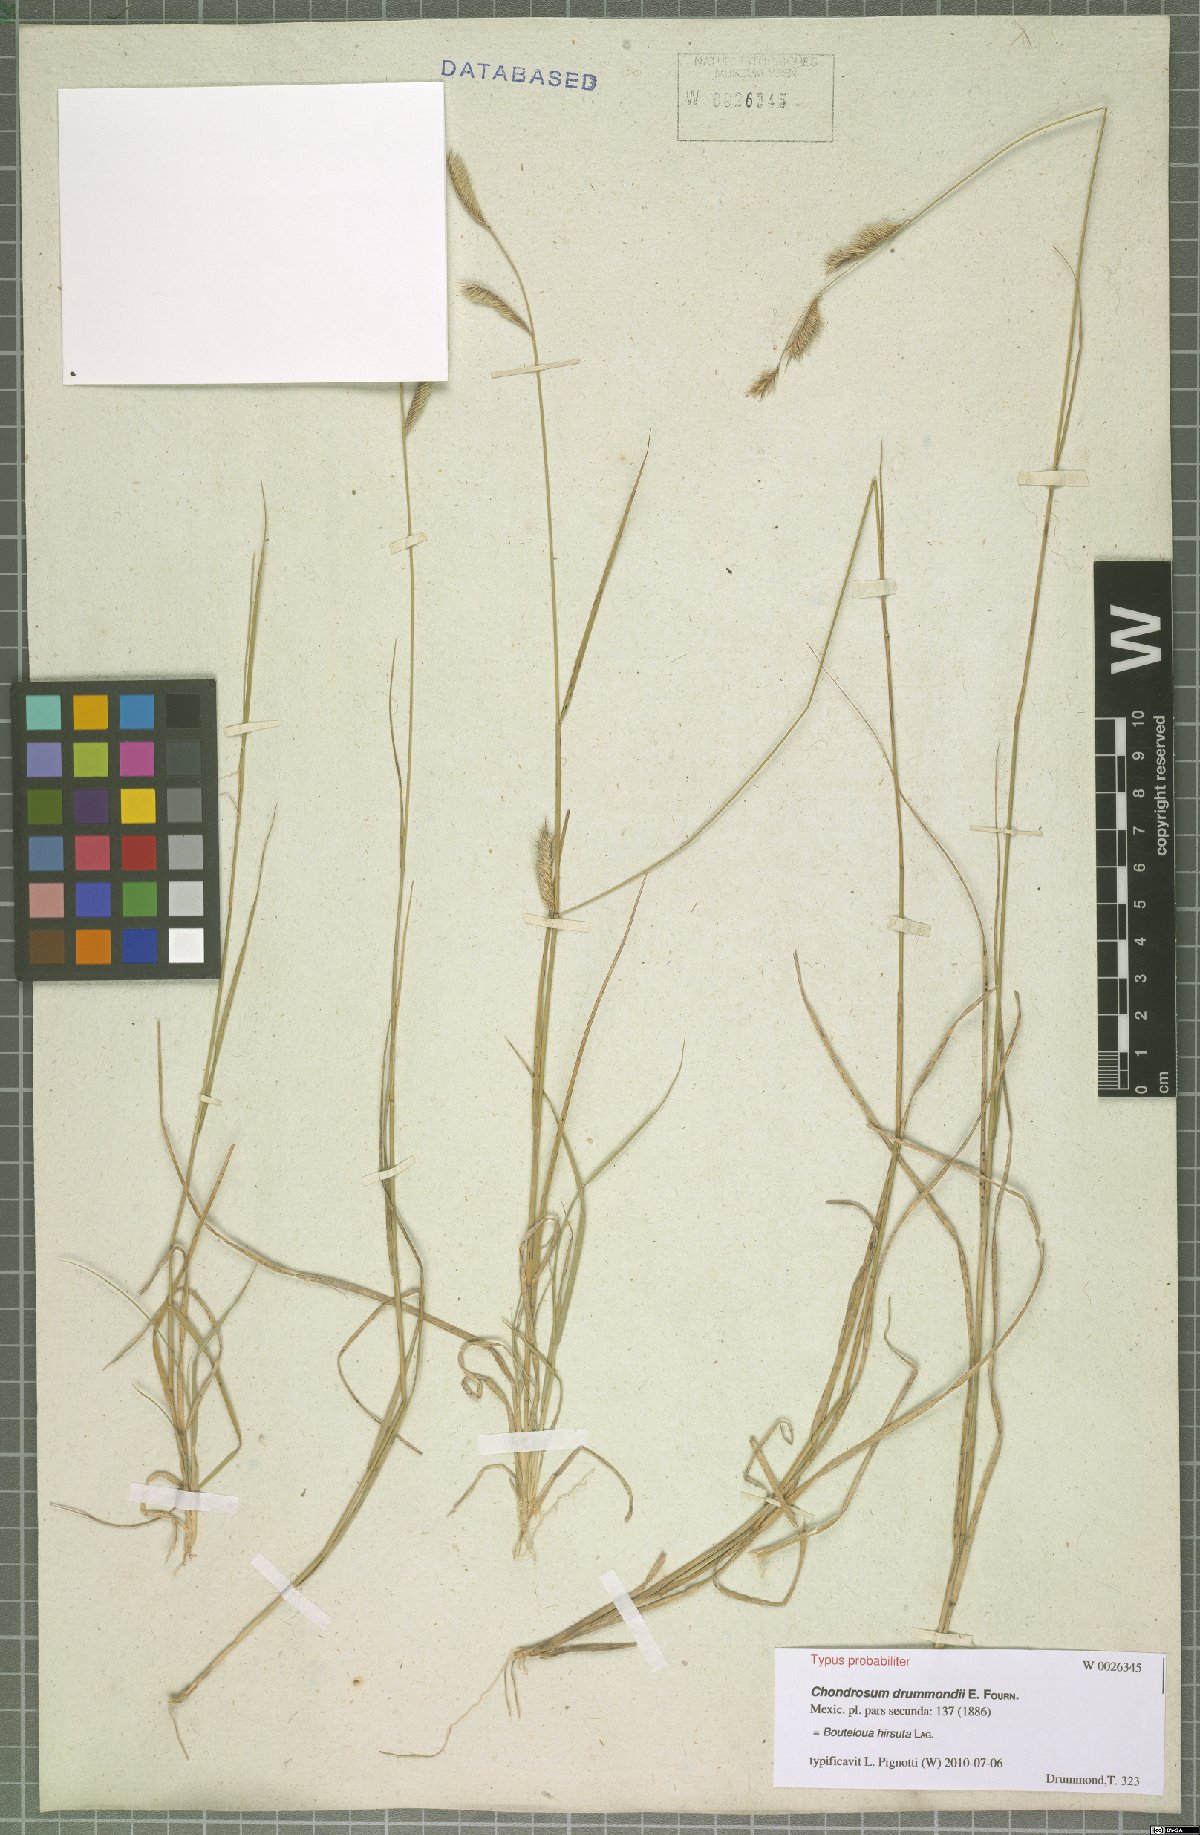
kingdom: Plantae
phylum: Tracheophyta
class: Liliopsida
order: Poales
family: Poaceae
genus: Bouteloua
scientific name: Bouteloua hirsuta
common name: Hairy grama
